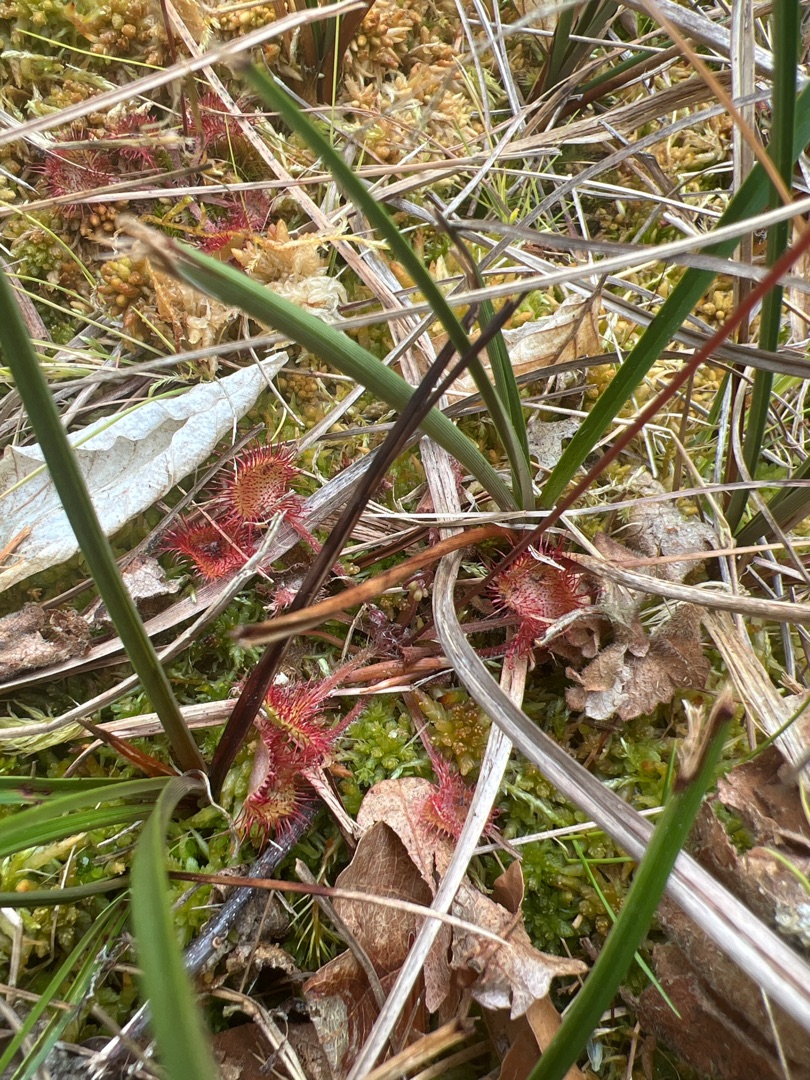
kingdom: Plantae
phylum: Tracheophyta
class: Magnoliopsida
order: Caryophyllales
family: Droseraceae
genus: Drosera
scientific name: Drosera rotundifolia
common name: Rundbladet soldug
